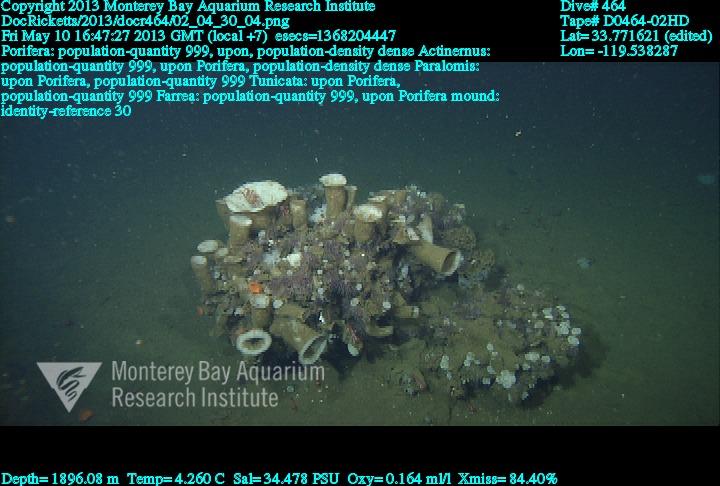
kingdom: Animalia
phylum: Porifera
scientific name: Porifera
